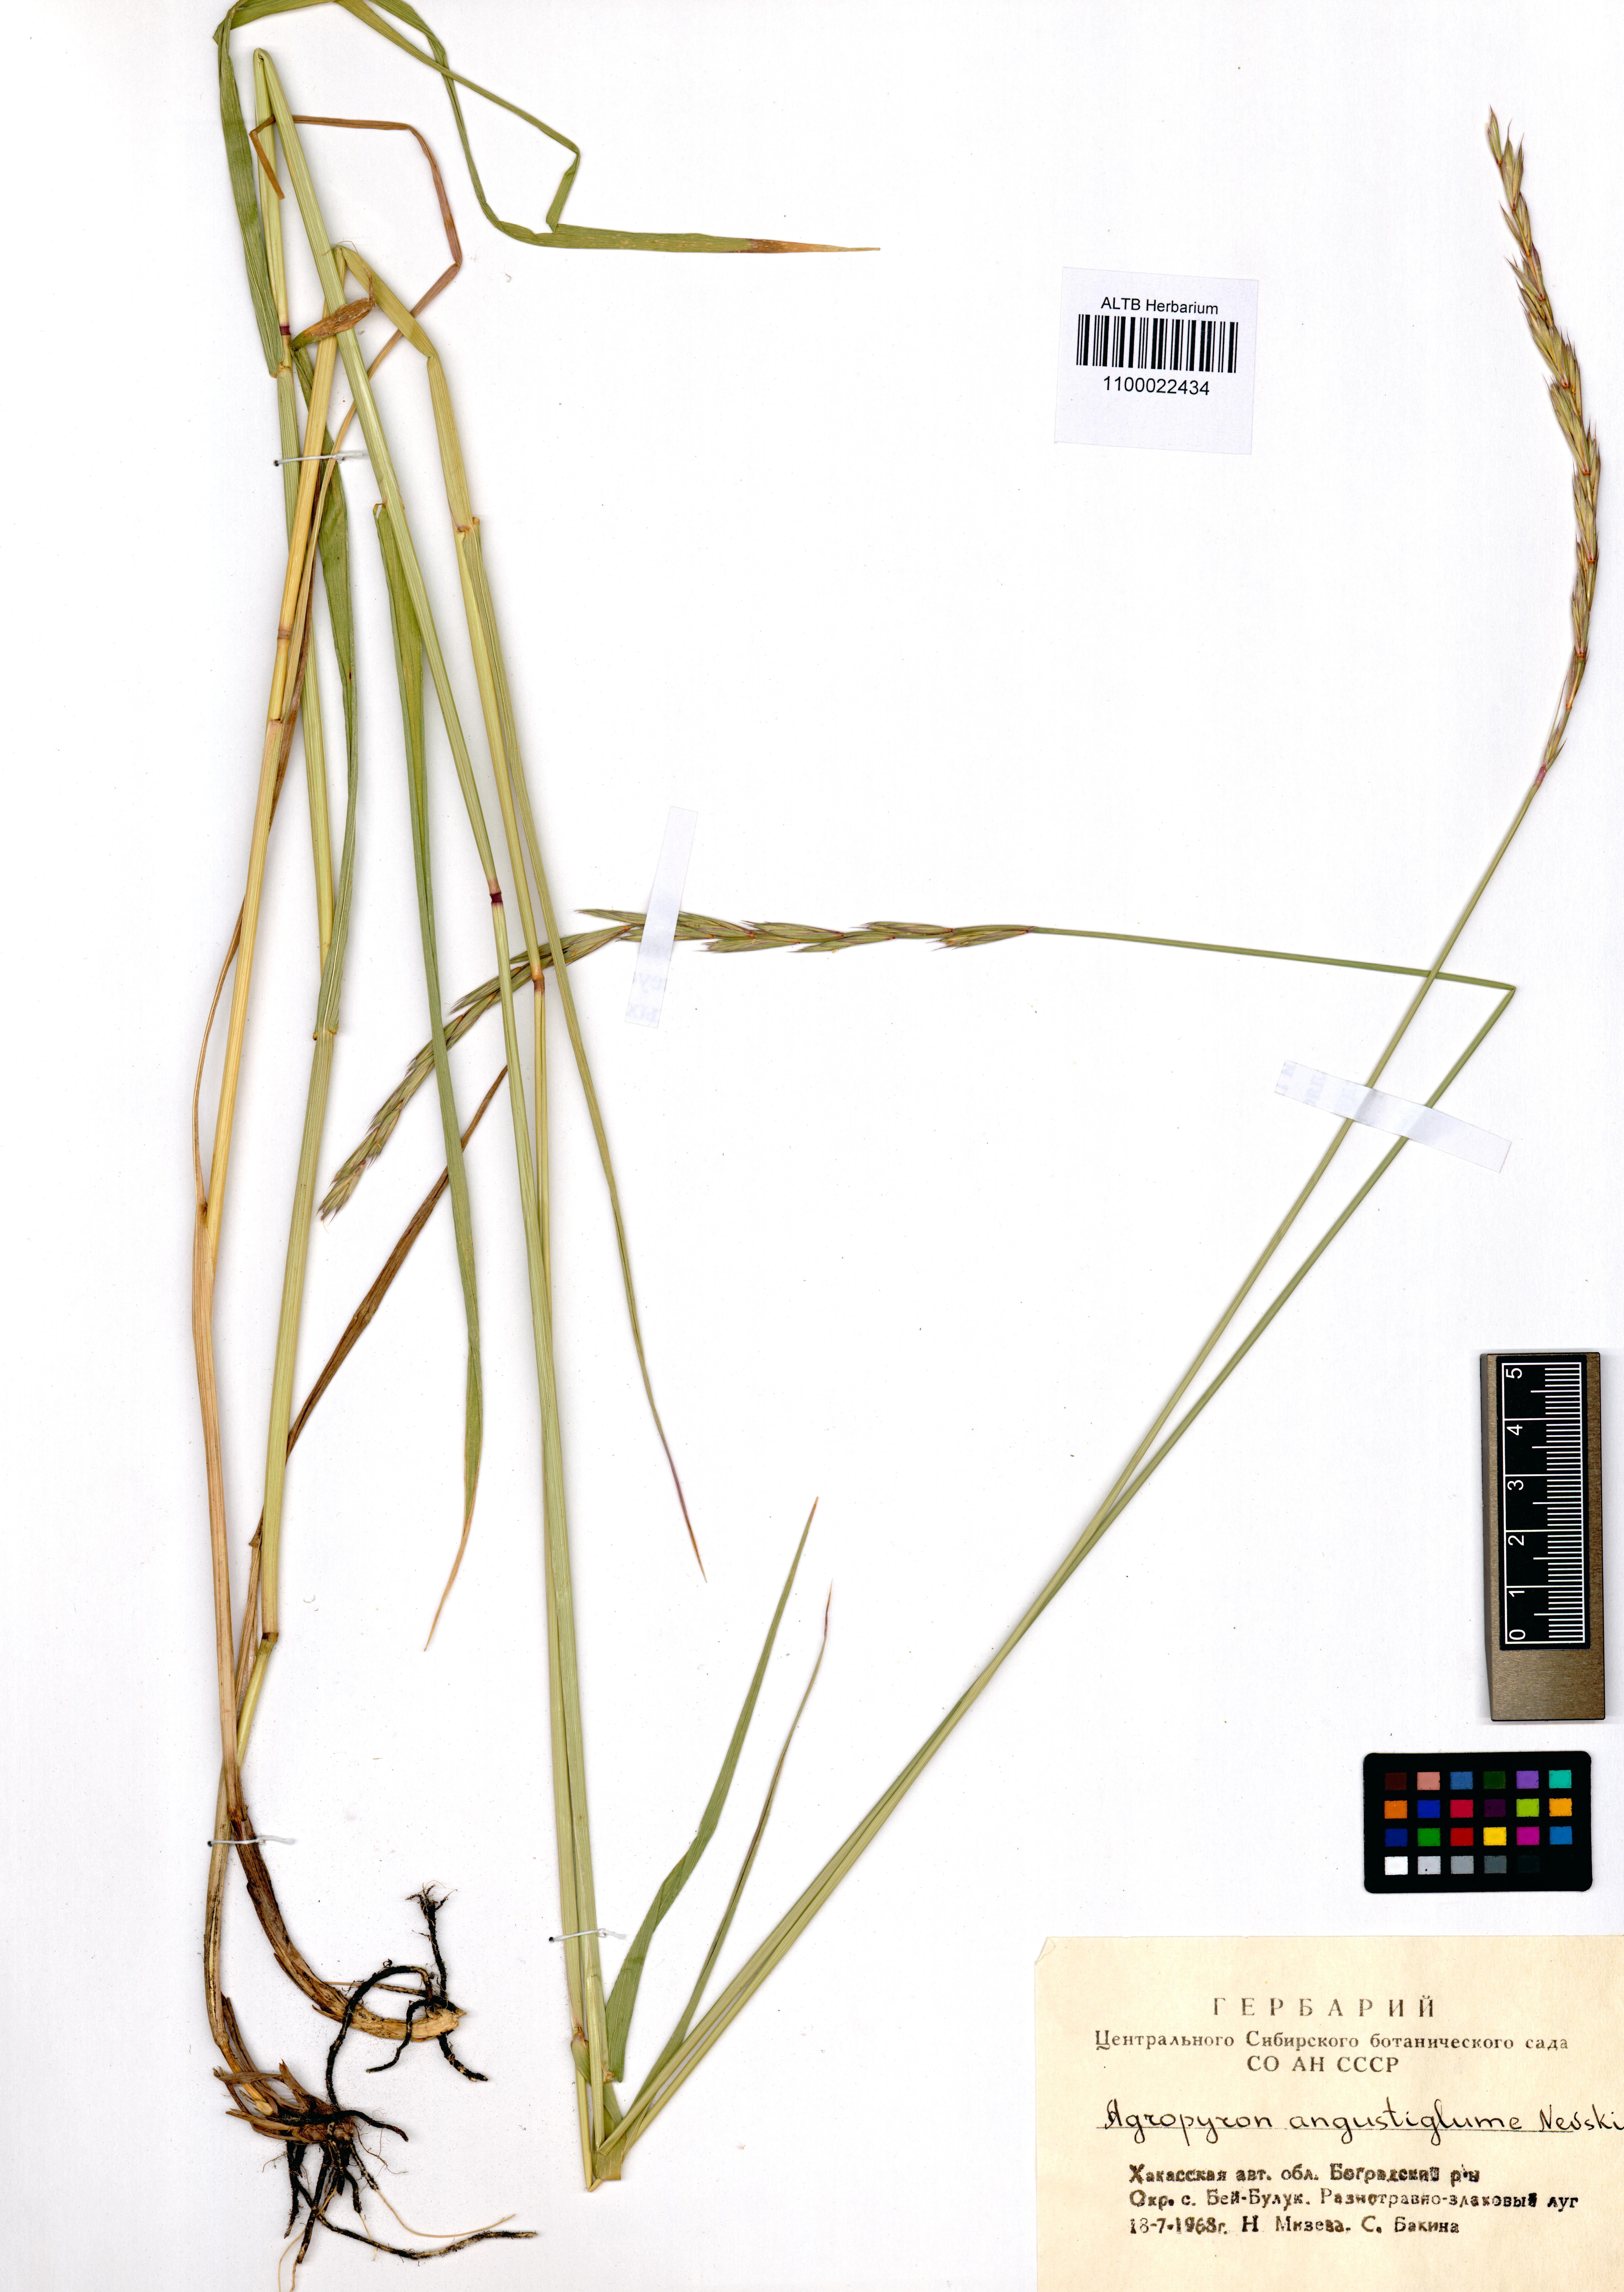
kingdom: Plantae
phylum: Tracheophyta
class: Liliopsida
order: Poales
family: Poaceae
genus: Elymus
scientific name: Elymus mutabilis
